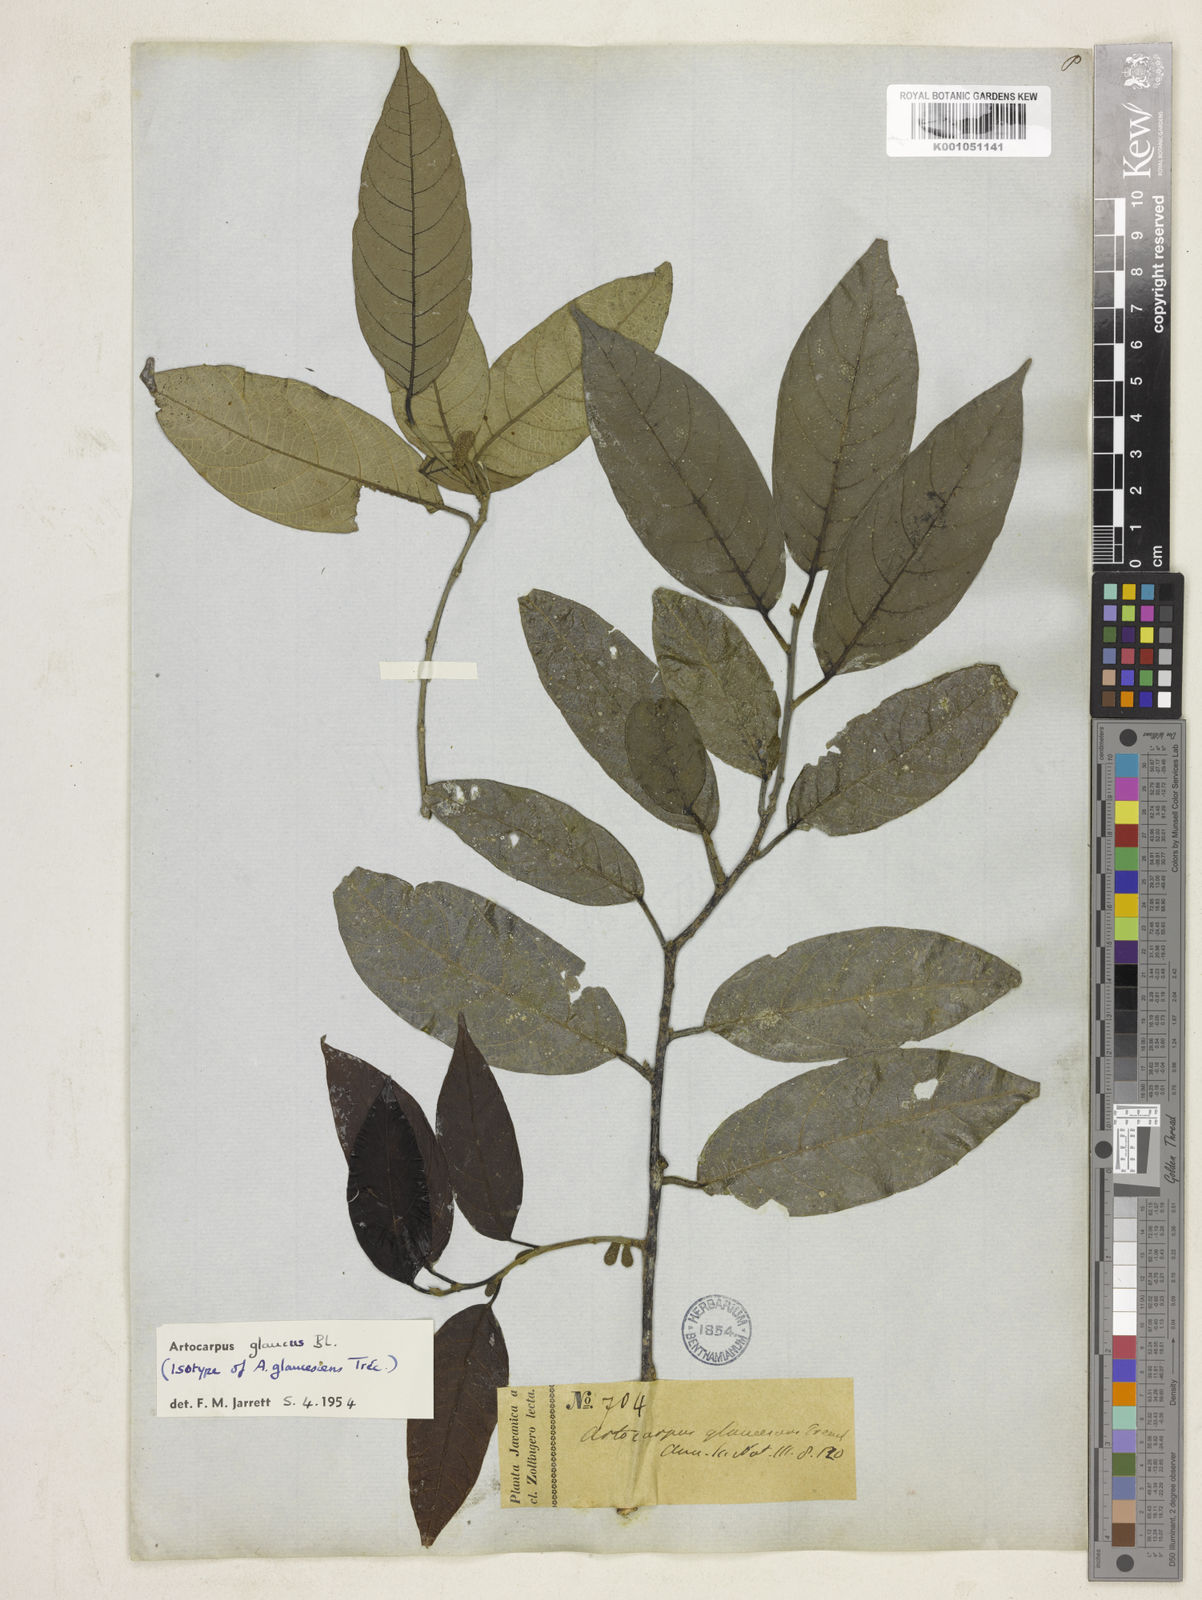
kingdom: Plantae
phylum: Tracheophyta
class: Magnoliopsida
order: Rosales
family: Moraceae
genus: Artocarpus
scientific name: Artocarpus glaucus
